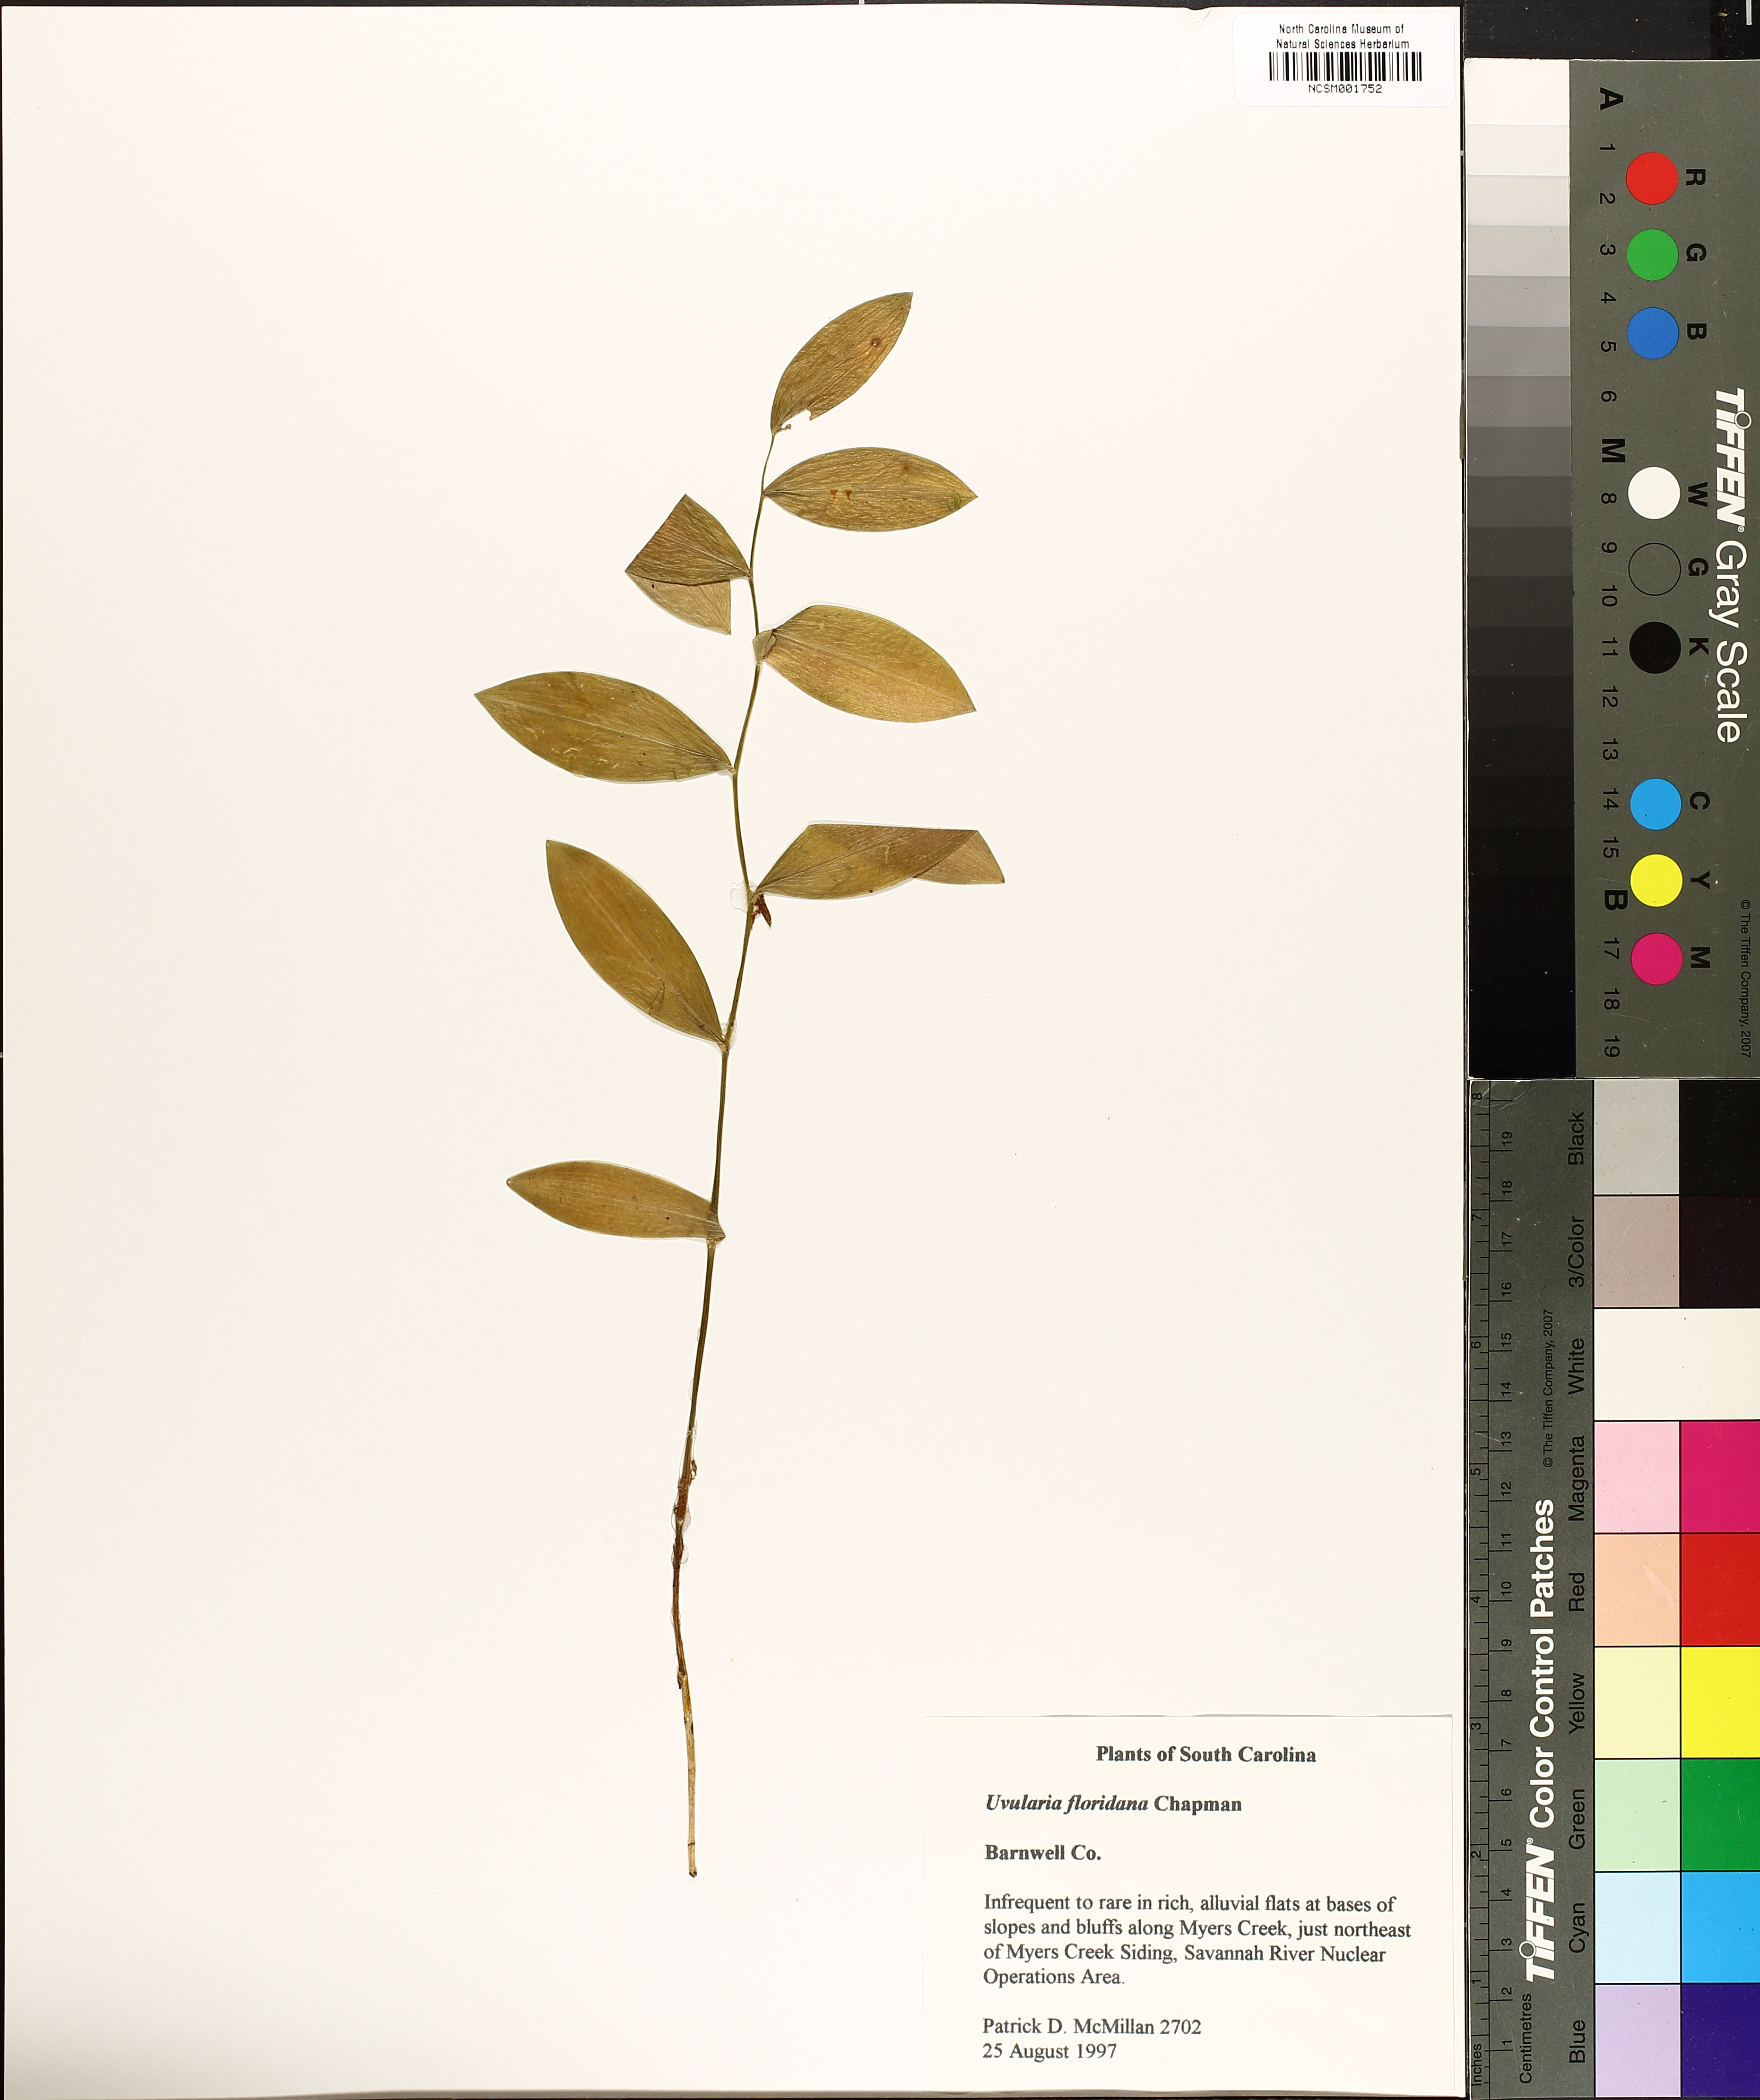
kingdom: Plantae
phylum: Tracheophyta
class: Liliopsida
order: Liliales
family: Colchicaceae
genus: Uvularia
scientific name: Uvularia floridana
